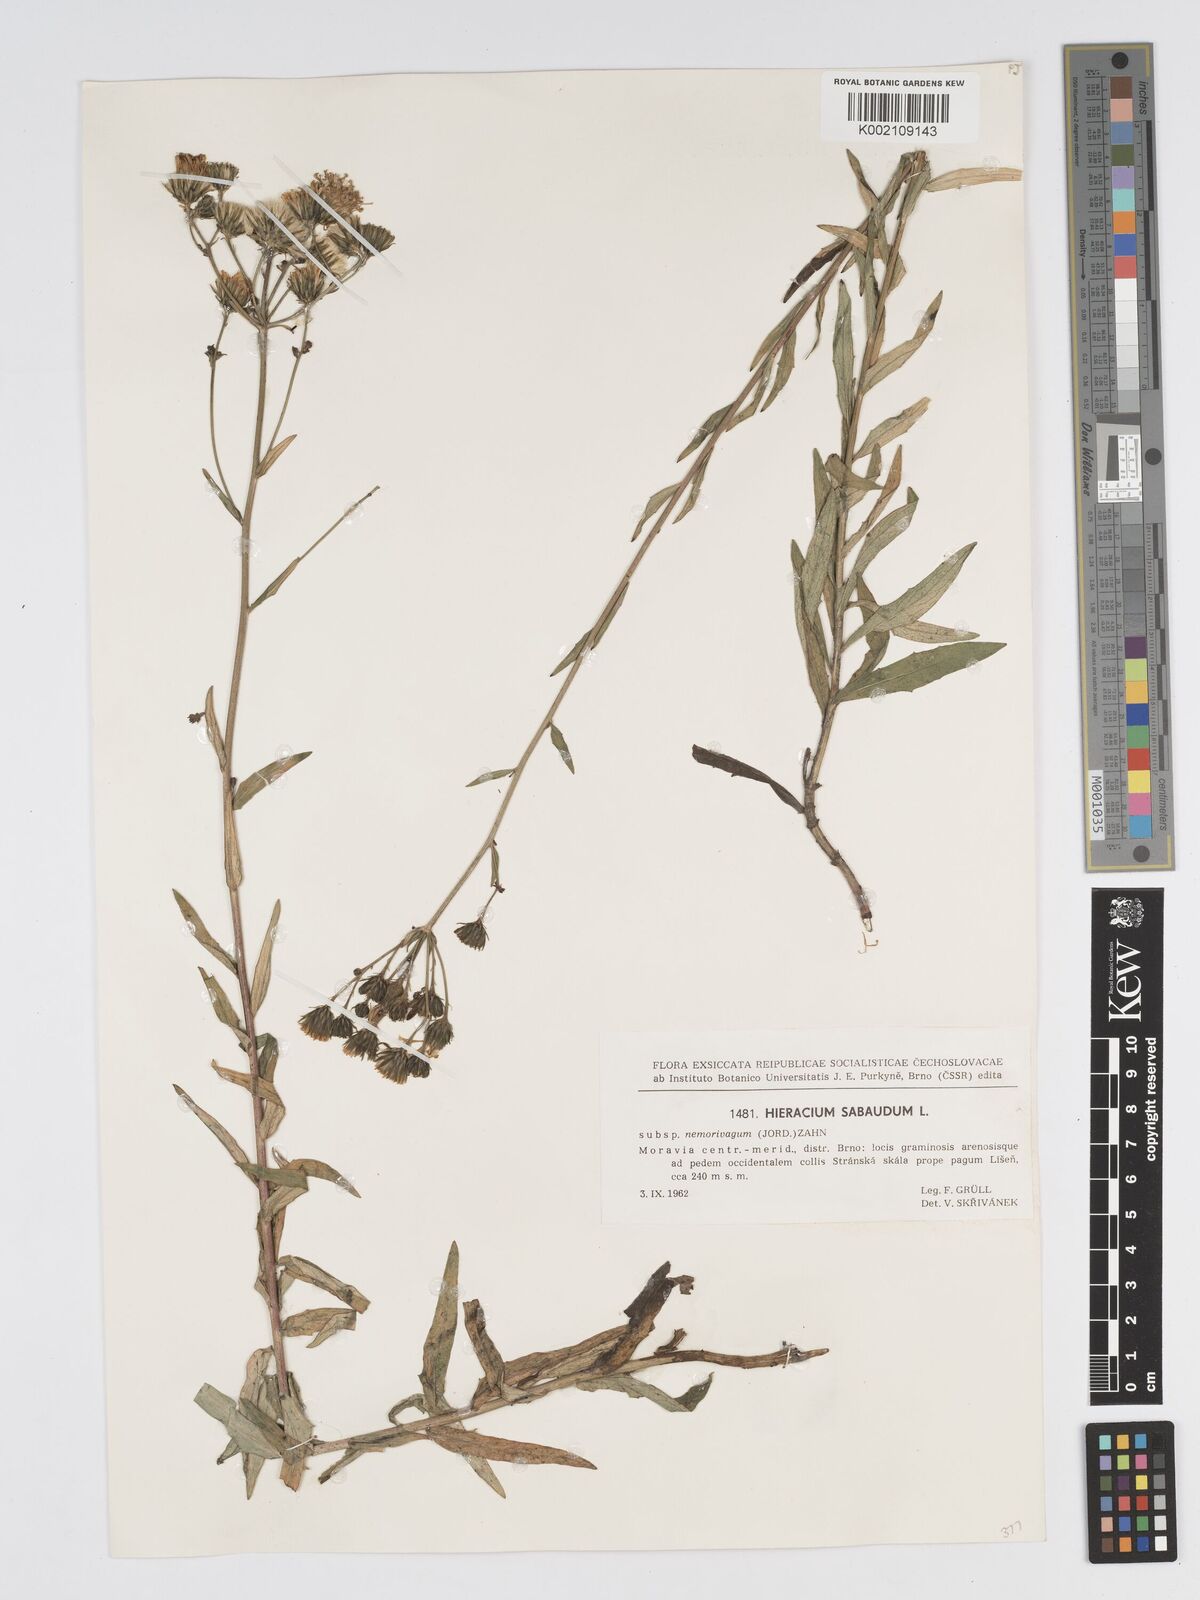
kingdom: Plantae
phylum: Tracheophyta
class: Magnoliopsida
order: Asterales
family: Asteraceae
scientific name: Asteraceae
